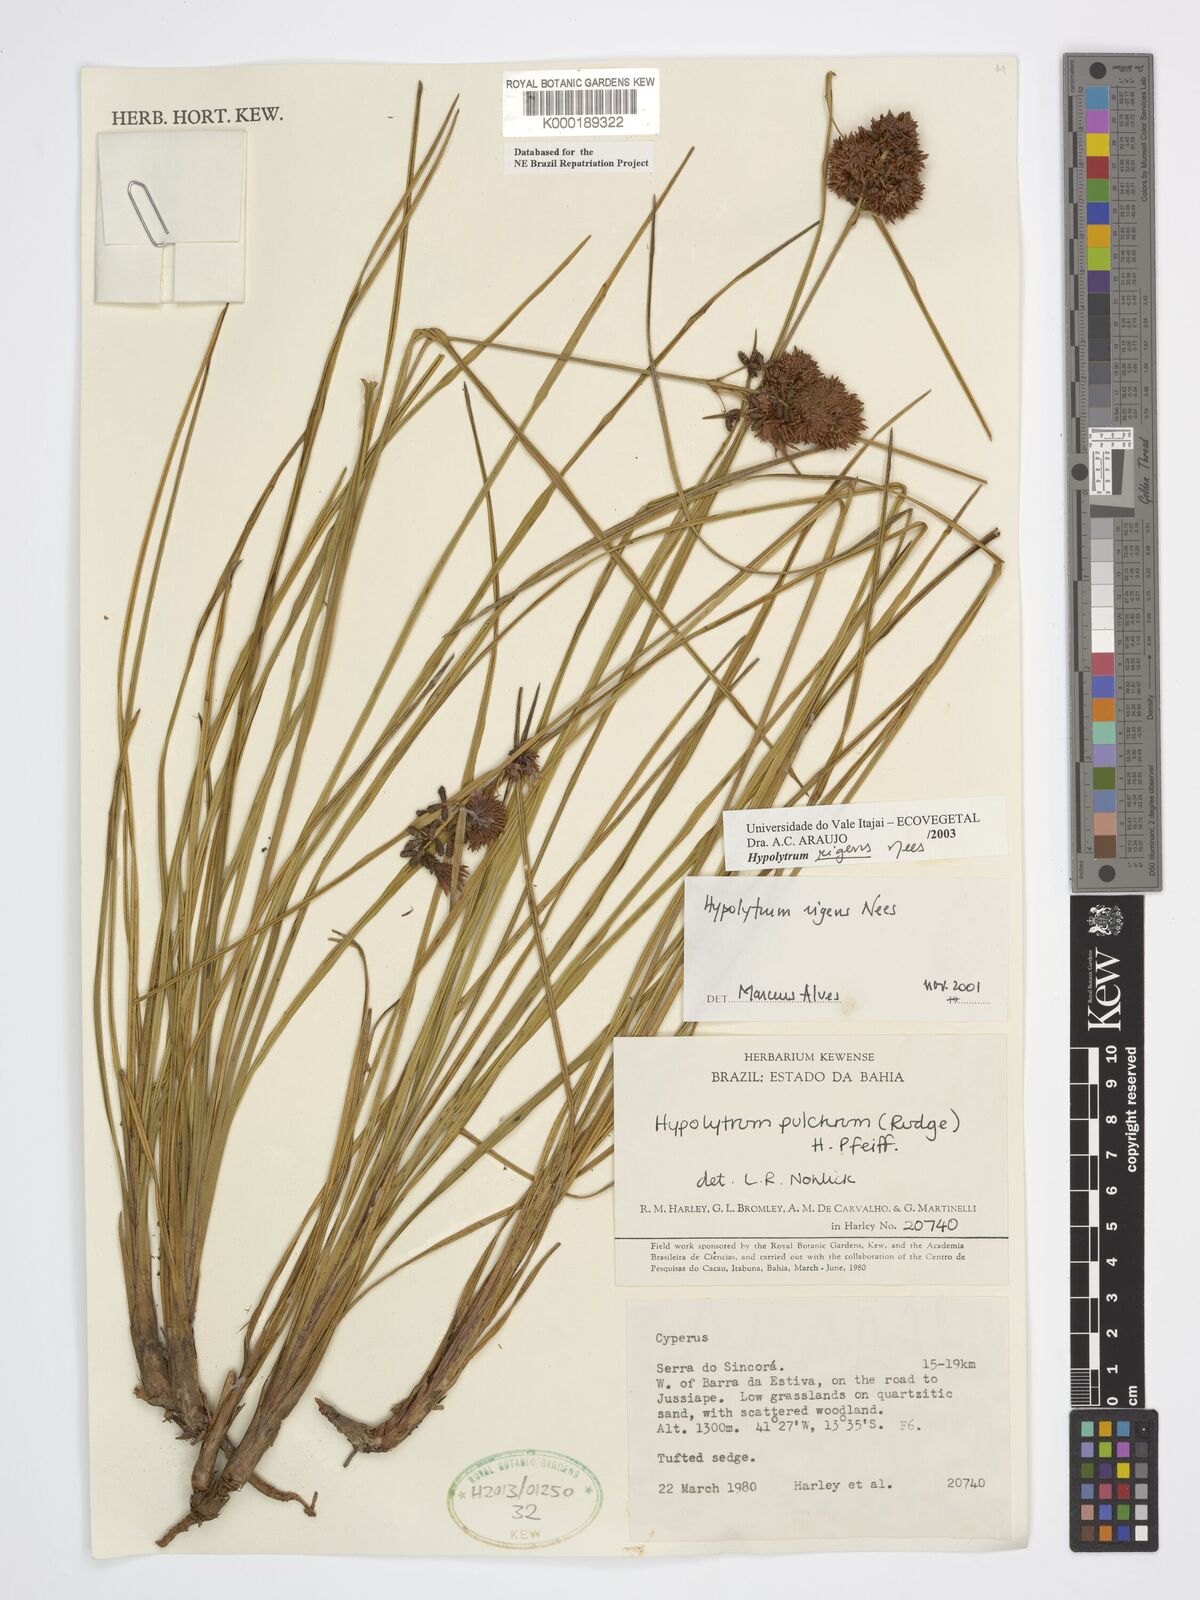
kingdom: Plantae
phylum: Tracheophyta
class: Liliopsida
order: Poales
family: Cyperaceae
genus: Hypolytrum
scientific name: Hypolytrum rigens
